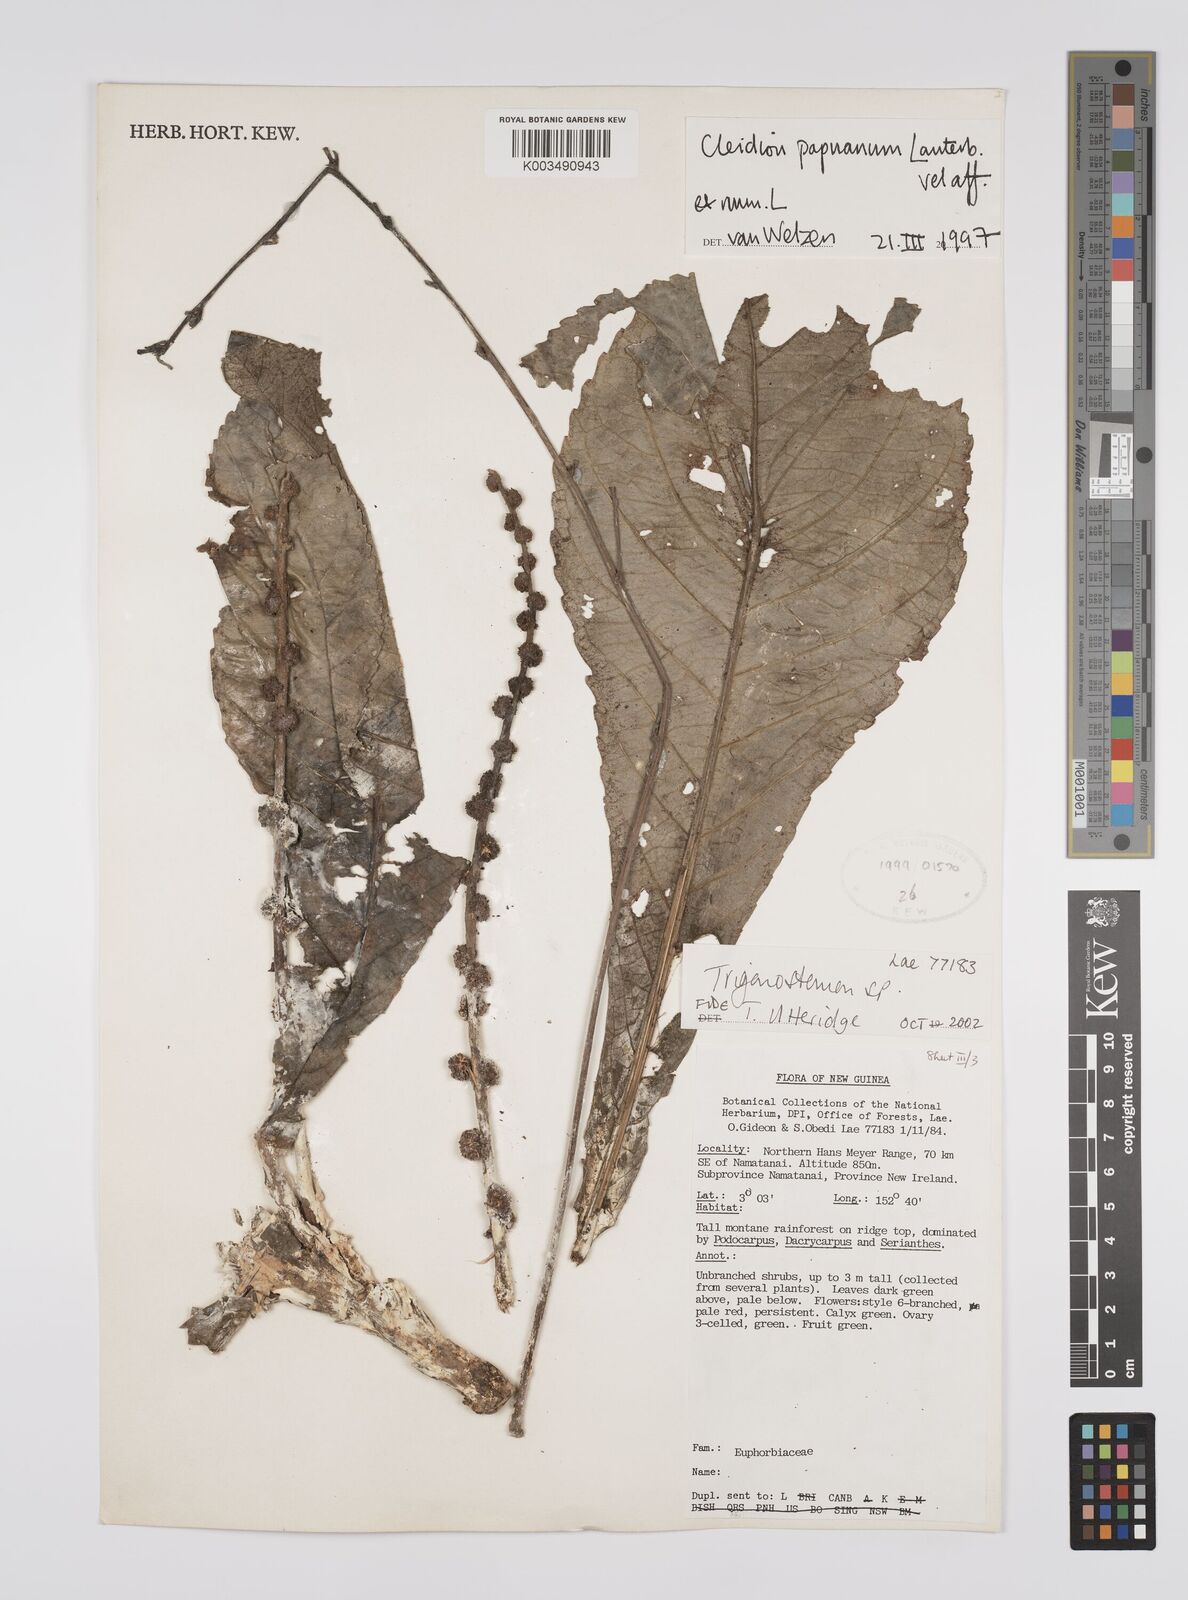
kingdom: Plantae
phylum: Tracheophyta
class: Magnoliopsida
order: Malpighiales
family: Euphorbiaceae
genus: Cleidion
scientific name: Cleidion papuanum
